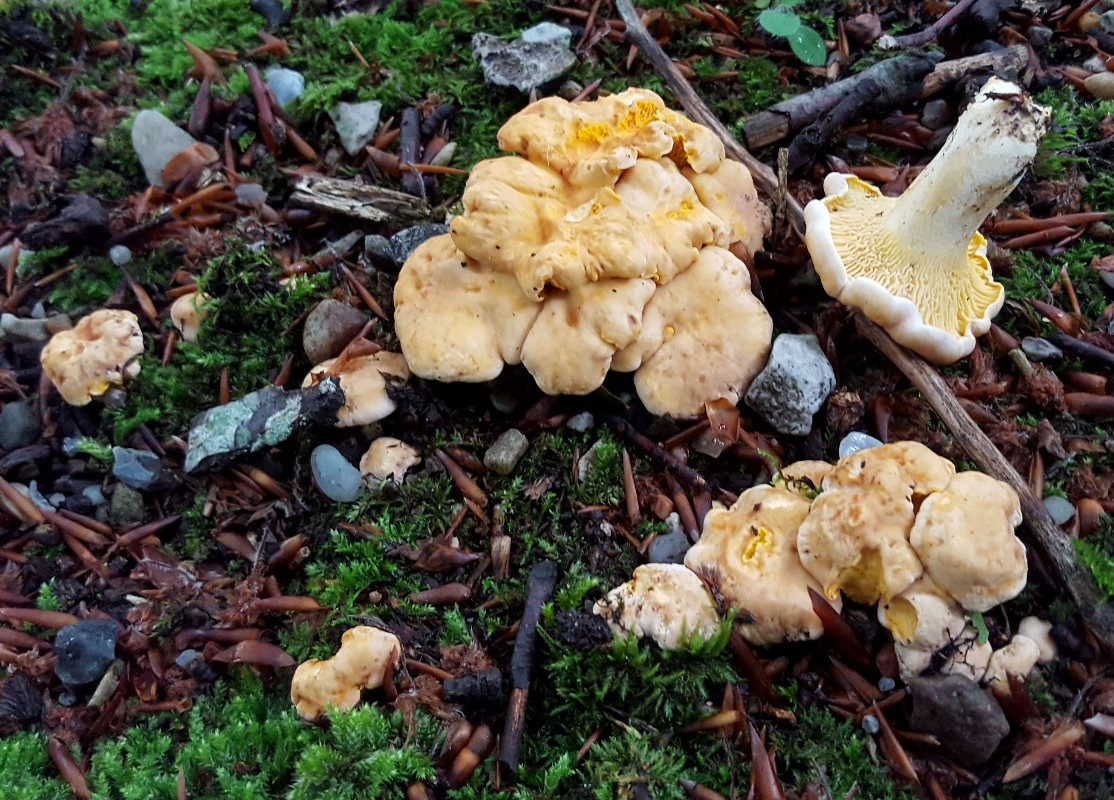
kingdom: Fungi
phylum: Basidiomycota
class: Agaricomycetes
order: Cantharellales
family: Hydnaceae
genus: Cantharellus
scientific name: Cantharellus pallens
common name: bleg kantarel
